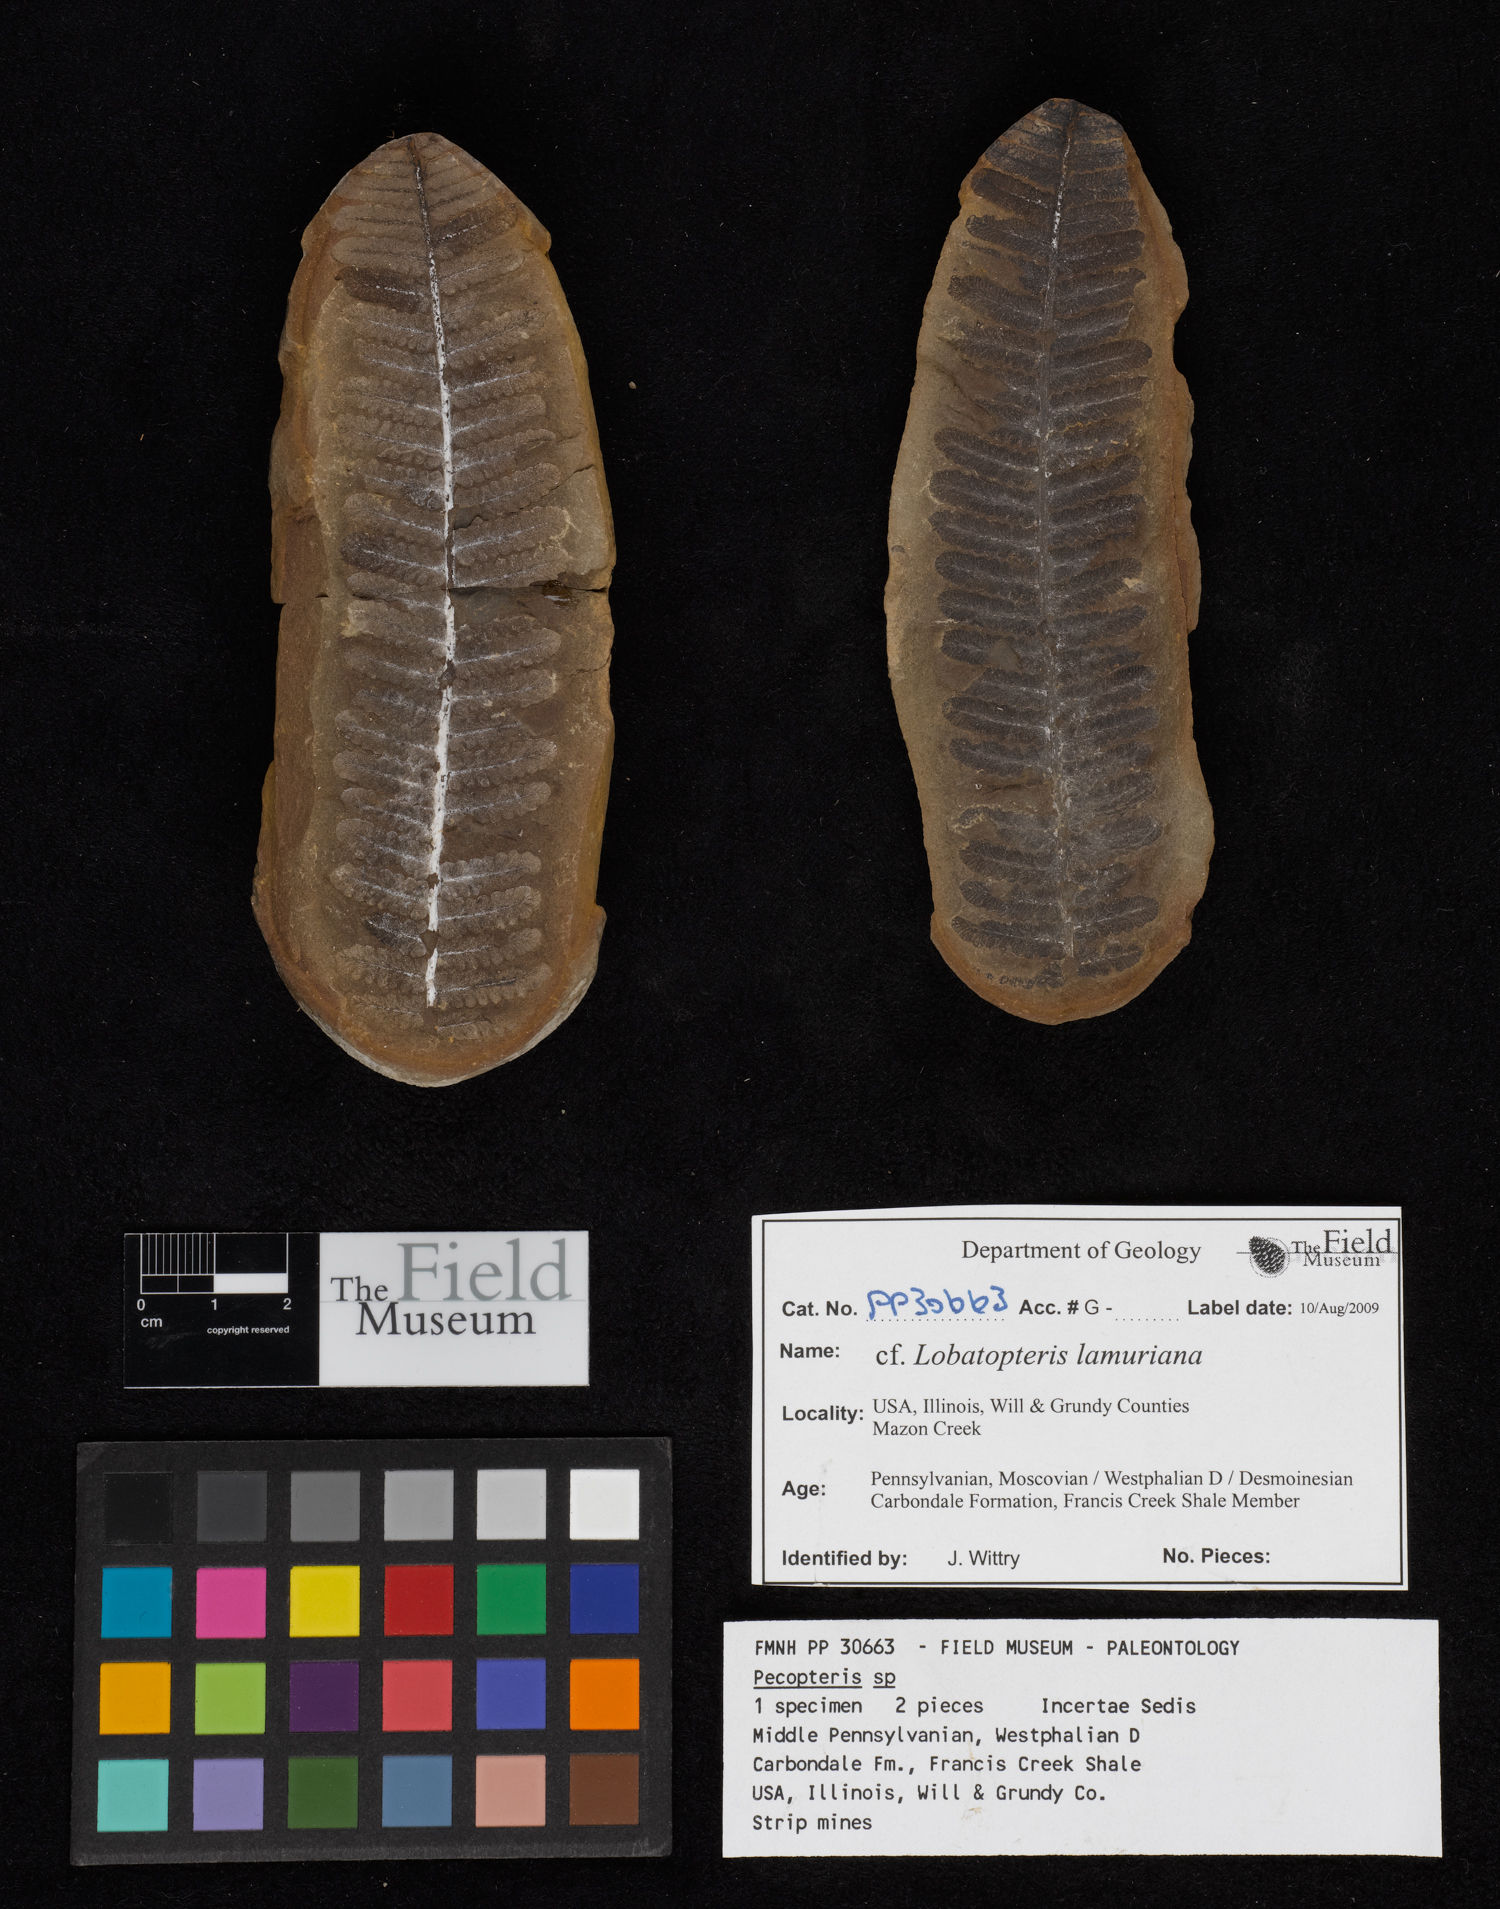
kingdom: Plantae
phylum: Tracheophyta
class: Polypodiopsida
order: Marattiales
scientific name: Marattiales
